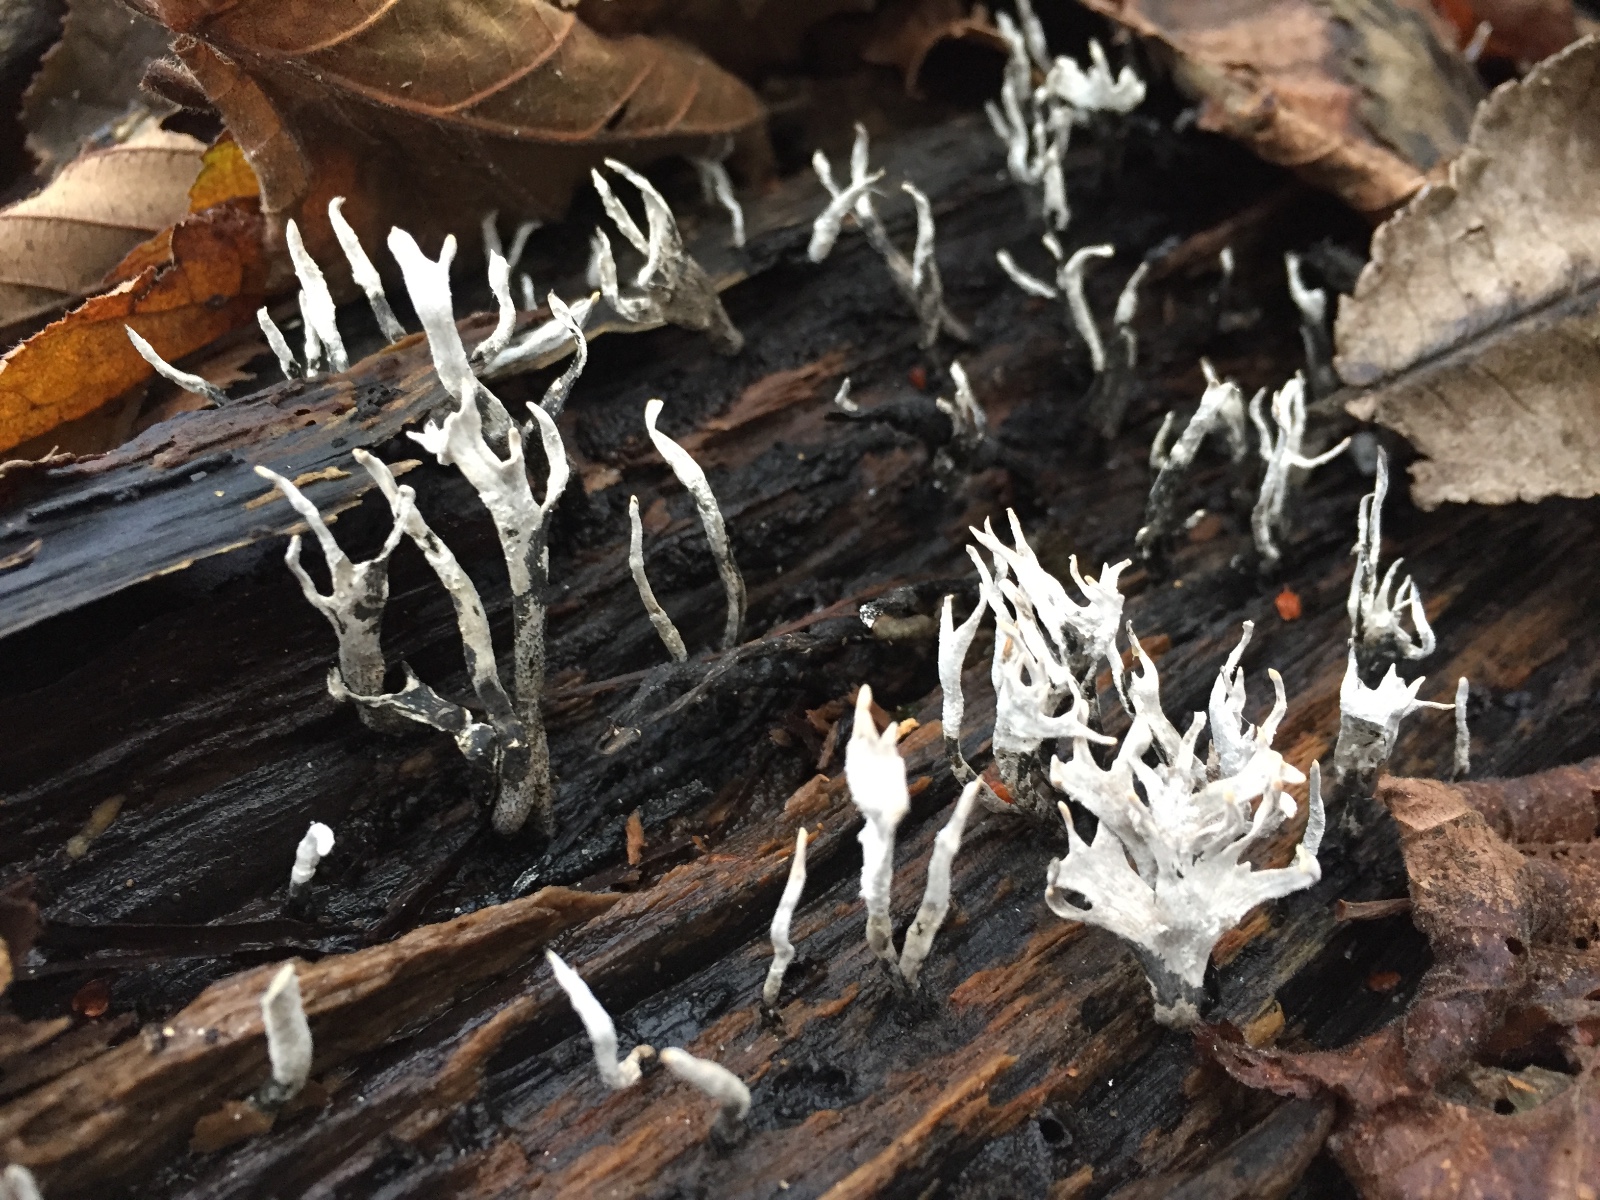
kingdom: Fungi
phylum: Ascomycota
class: Sordariomycetes
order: Xylariales
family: Xylariaceae
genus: Xylaria
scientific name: Xylaria hypoxylon
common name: grenet stødsvamp
